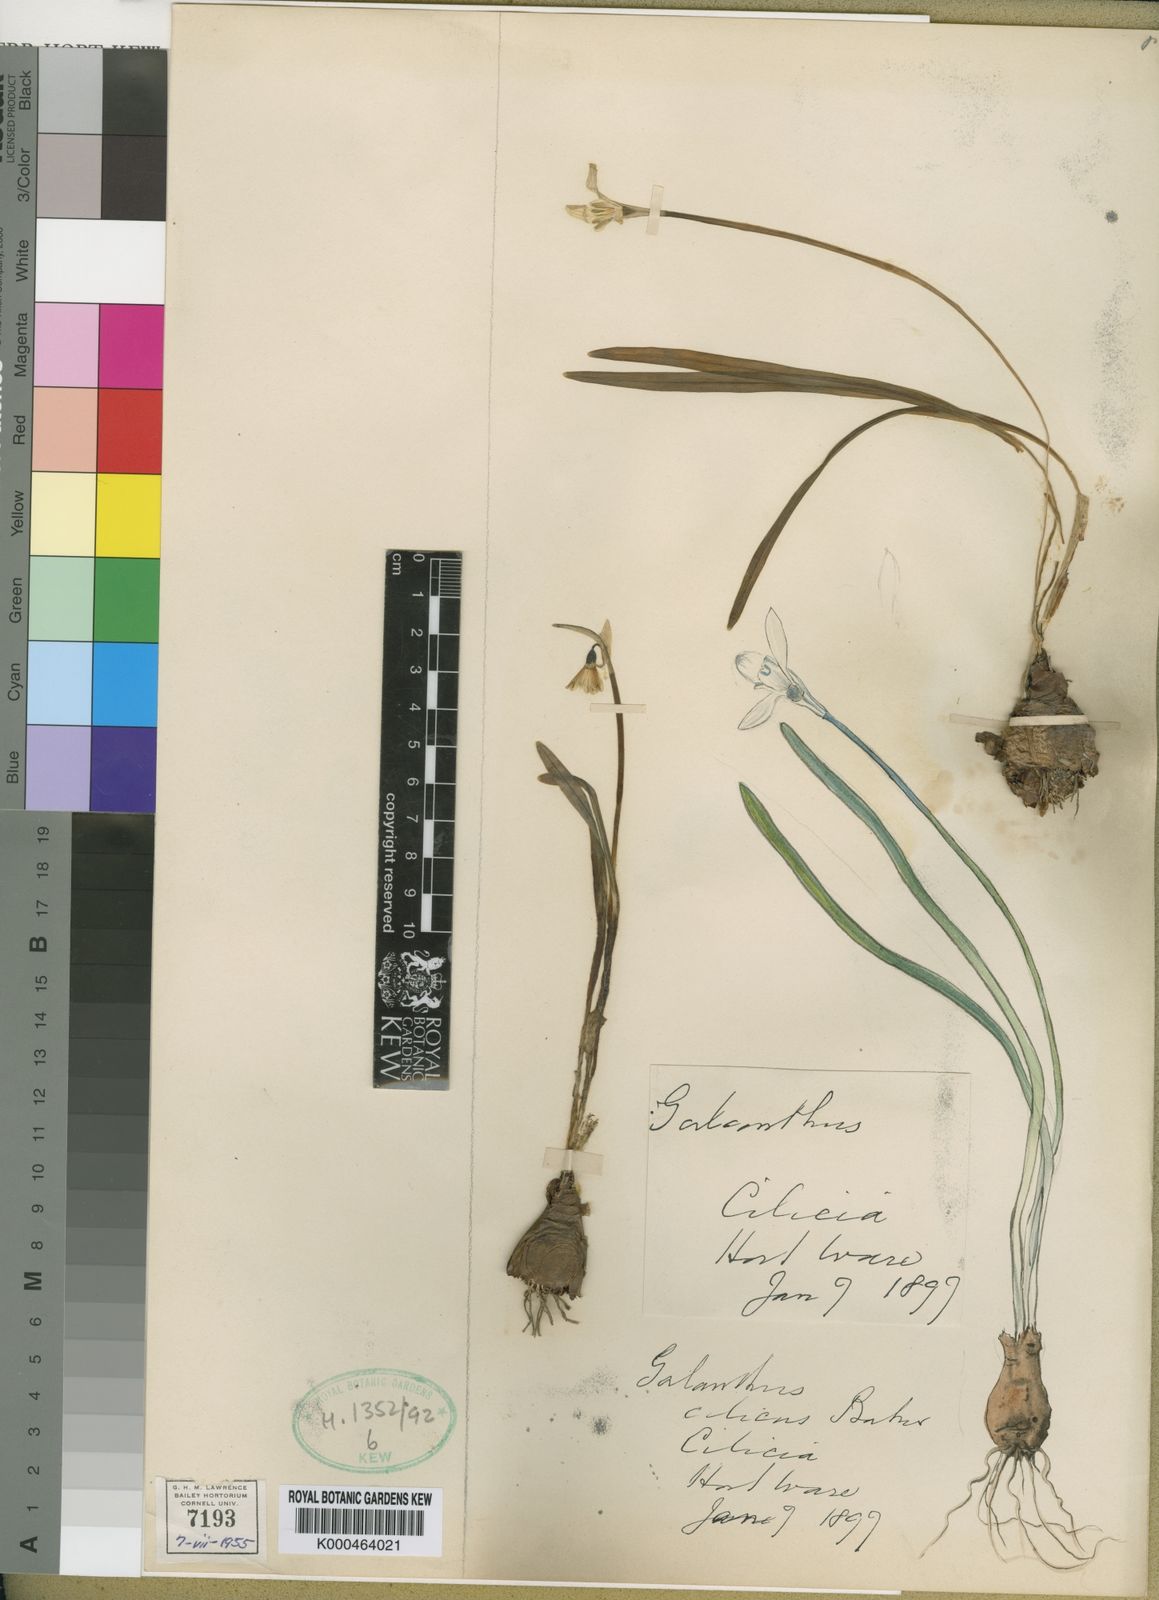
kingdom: Plantae
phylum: Tracheophyta
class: Liliopsida
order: Asparagales
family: Amaryllidaceae
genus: Galanthus
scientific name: Galanthus cilicicus
